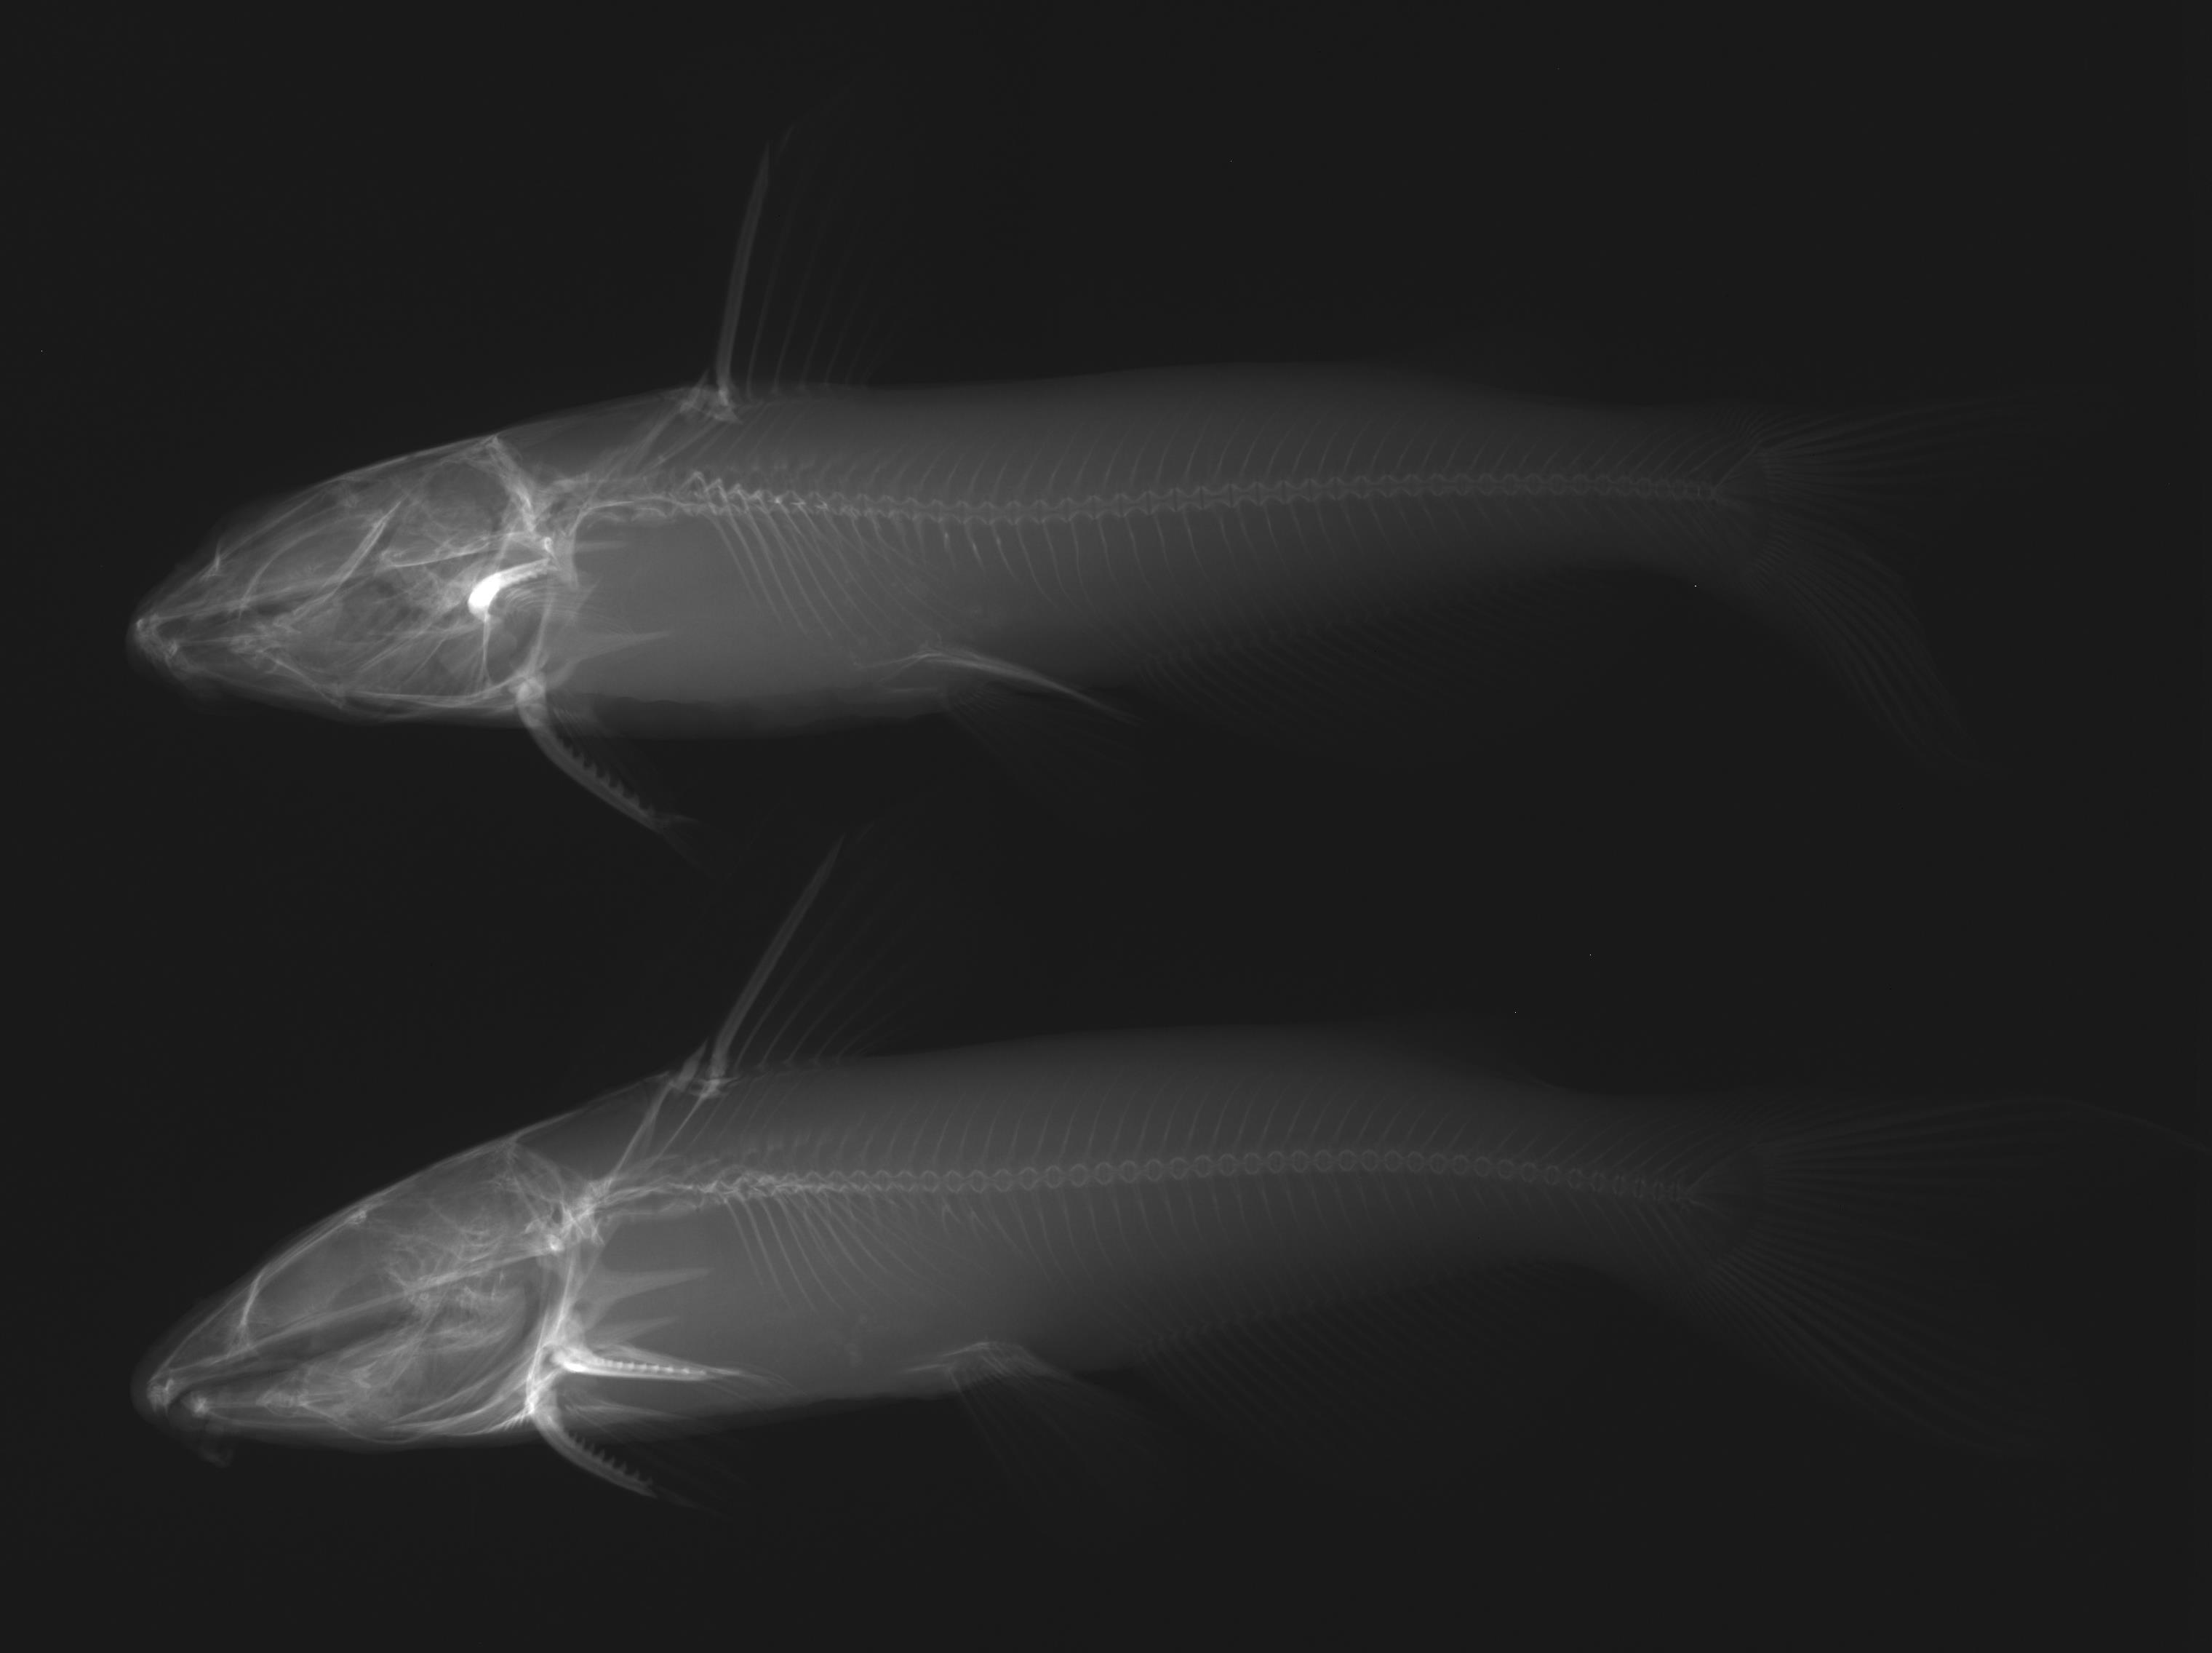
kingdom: Animalia
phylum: Chordata
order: Siluriformes
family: Ictaluridae
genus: Ictalurus
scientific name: Ictalurus punctatus
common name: Channel catfish
